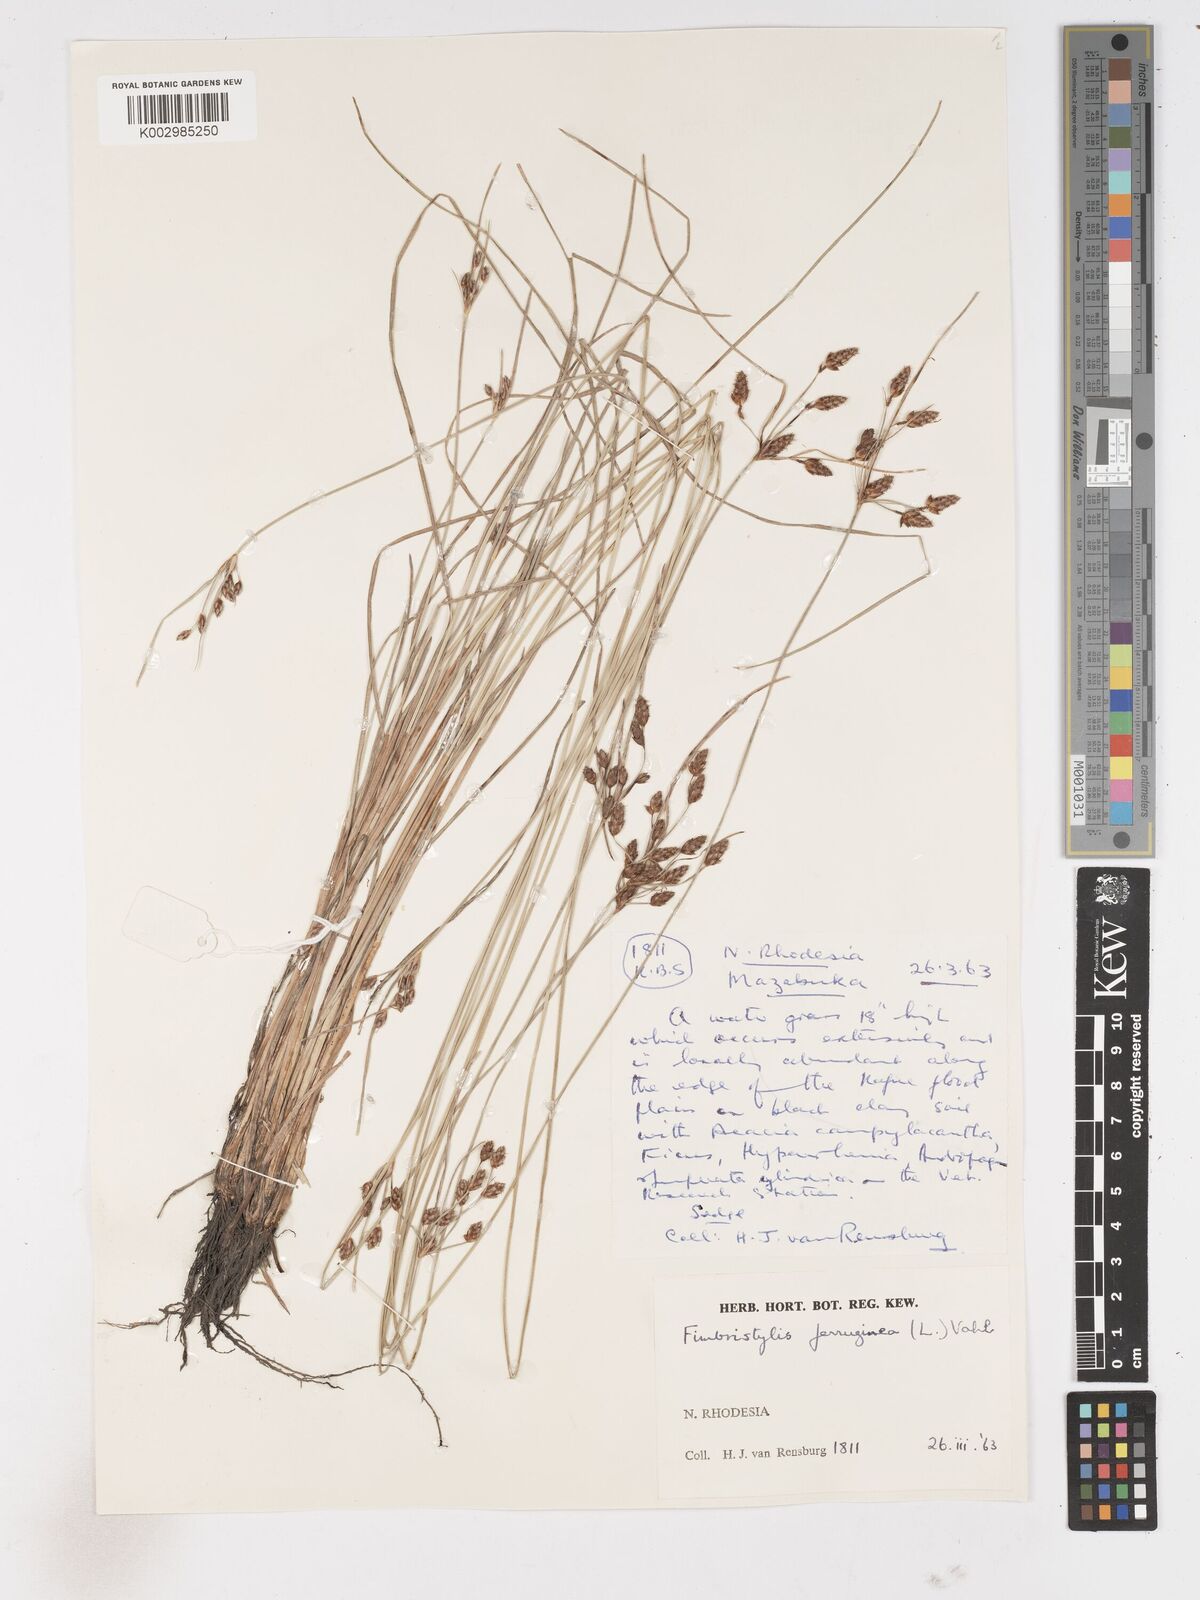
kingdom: Plantae
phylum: Tracheophyta
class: Liliopsida
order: Poales
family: Cyperaceae
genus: Fimbristylis
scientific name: Fimbristylis ferruginea
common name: West indian fimbry
